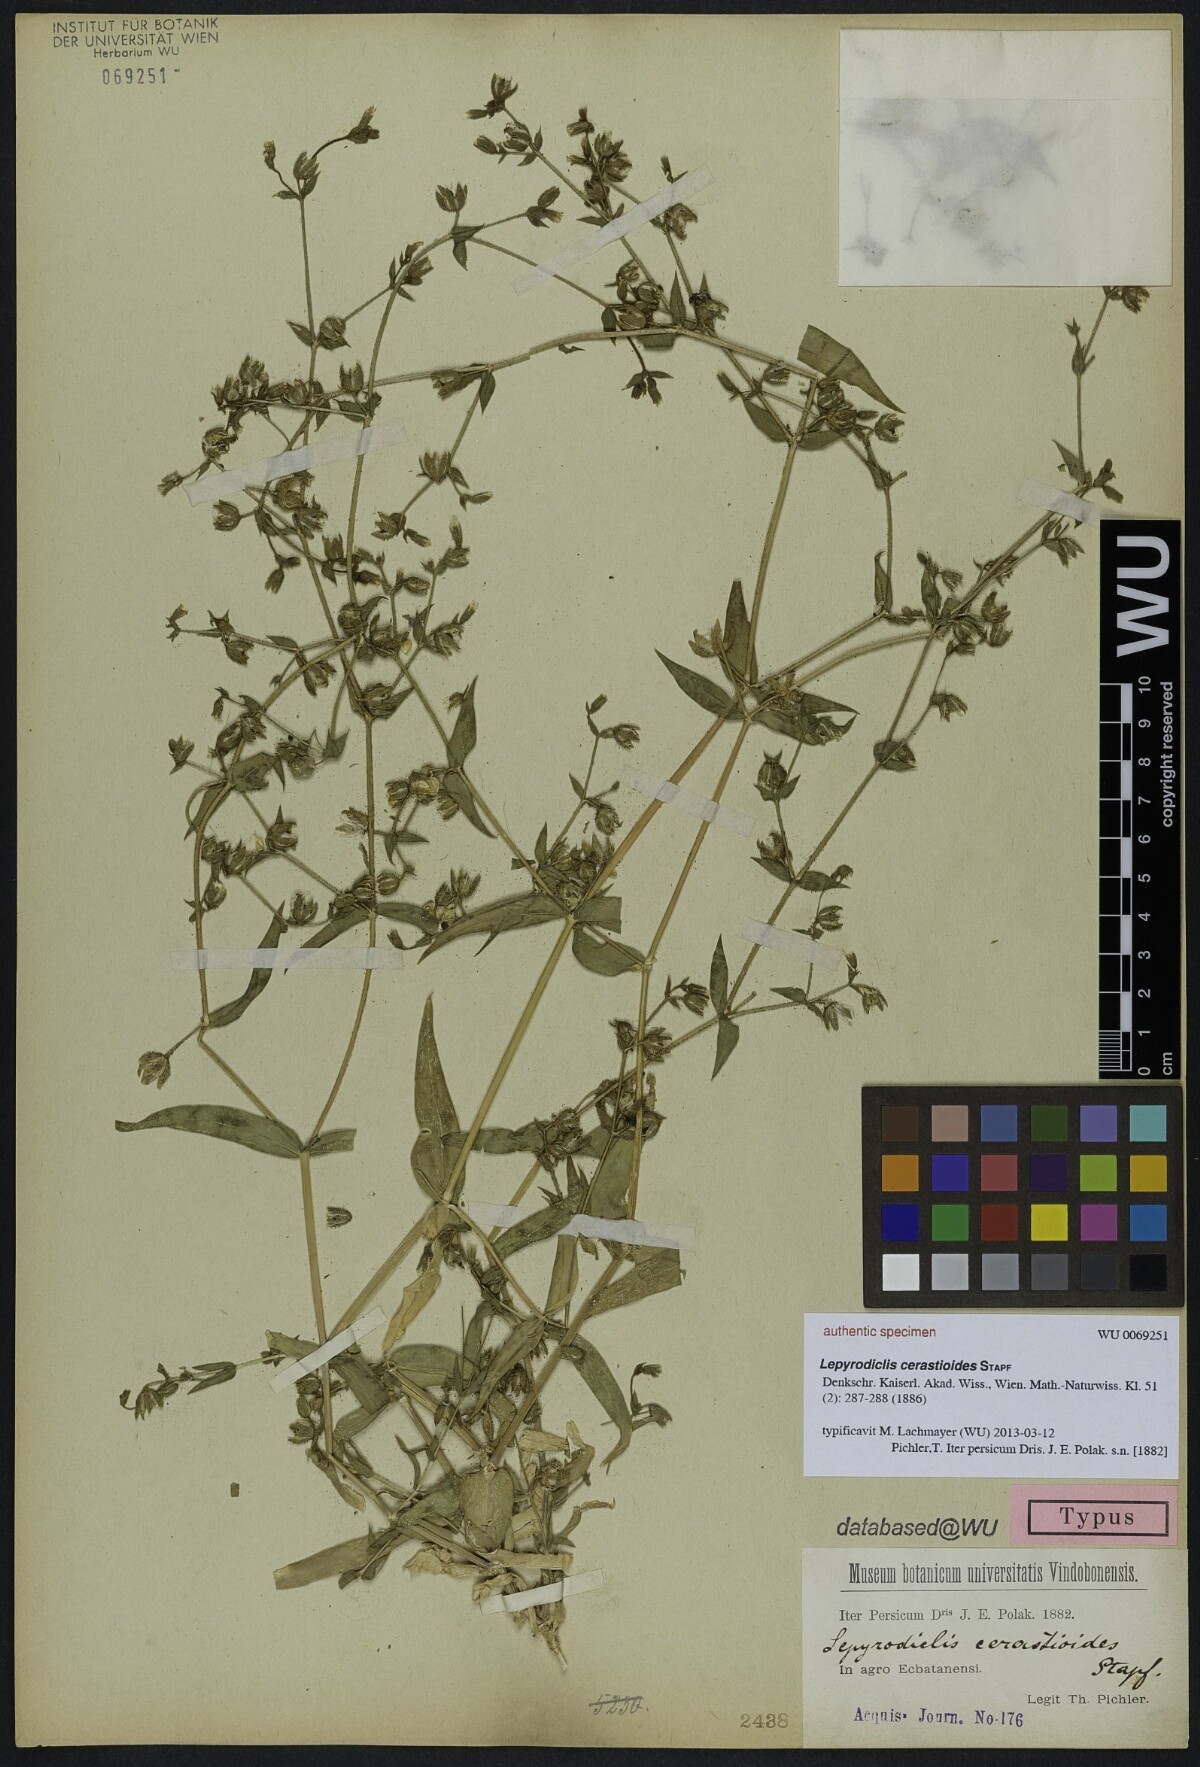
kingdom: Plantae
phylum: Tracheophyta
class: Magnoliopsida
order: Caryophyllales
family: Caryophyllaceae
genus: Lepyrodiclis
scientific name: Lepyrodiclis holosteoides
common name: False jagged-ckickweed
